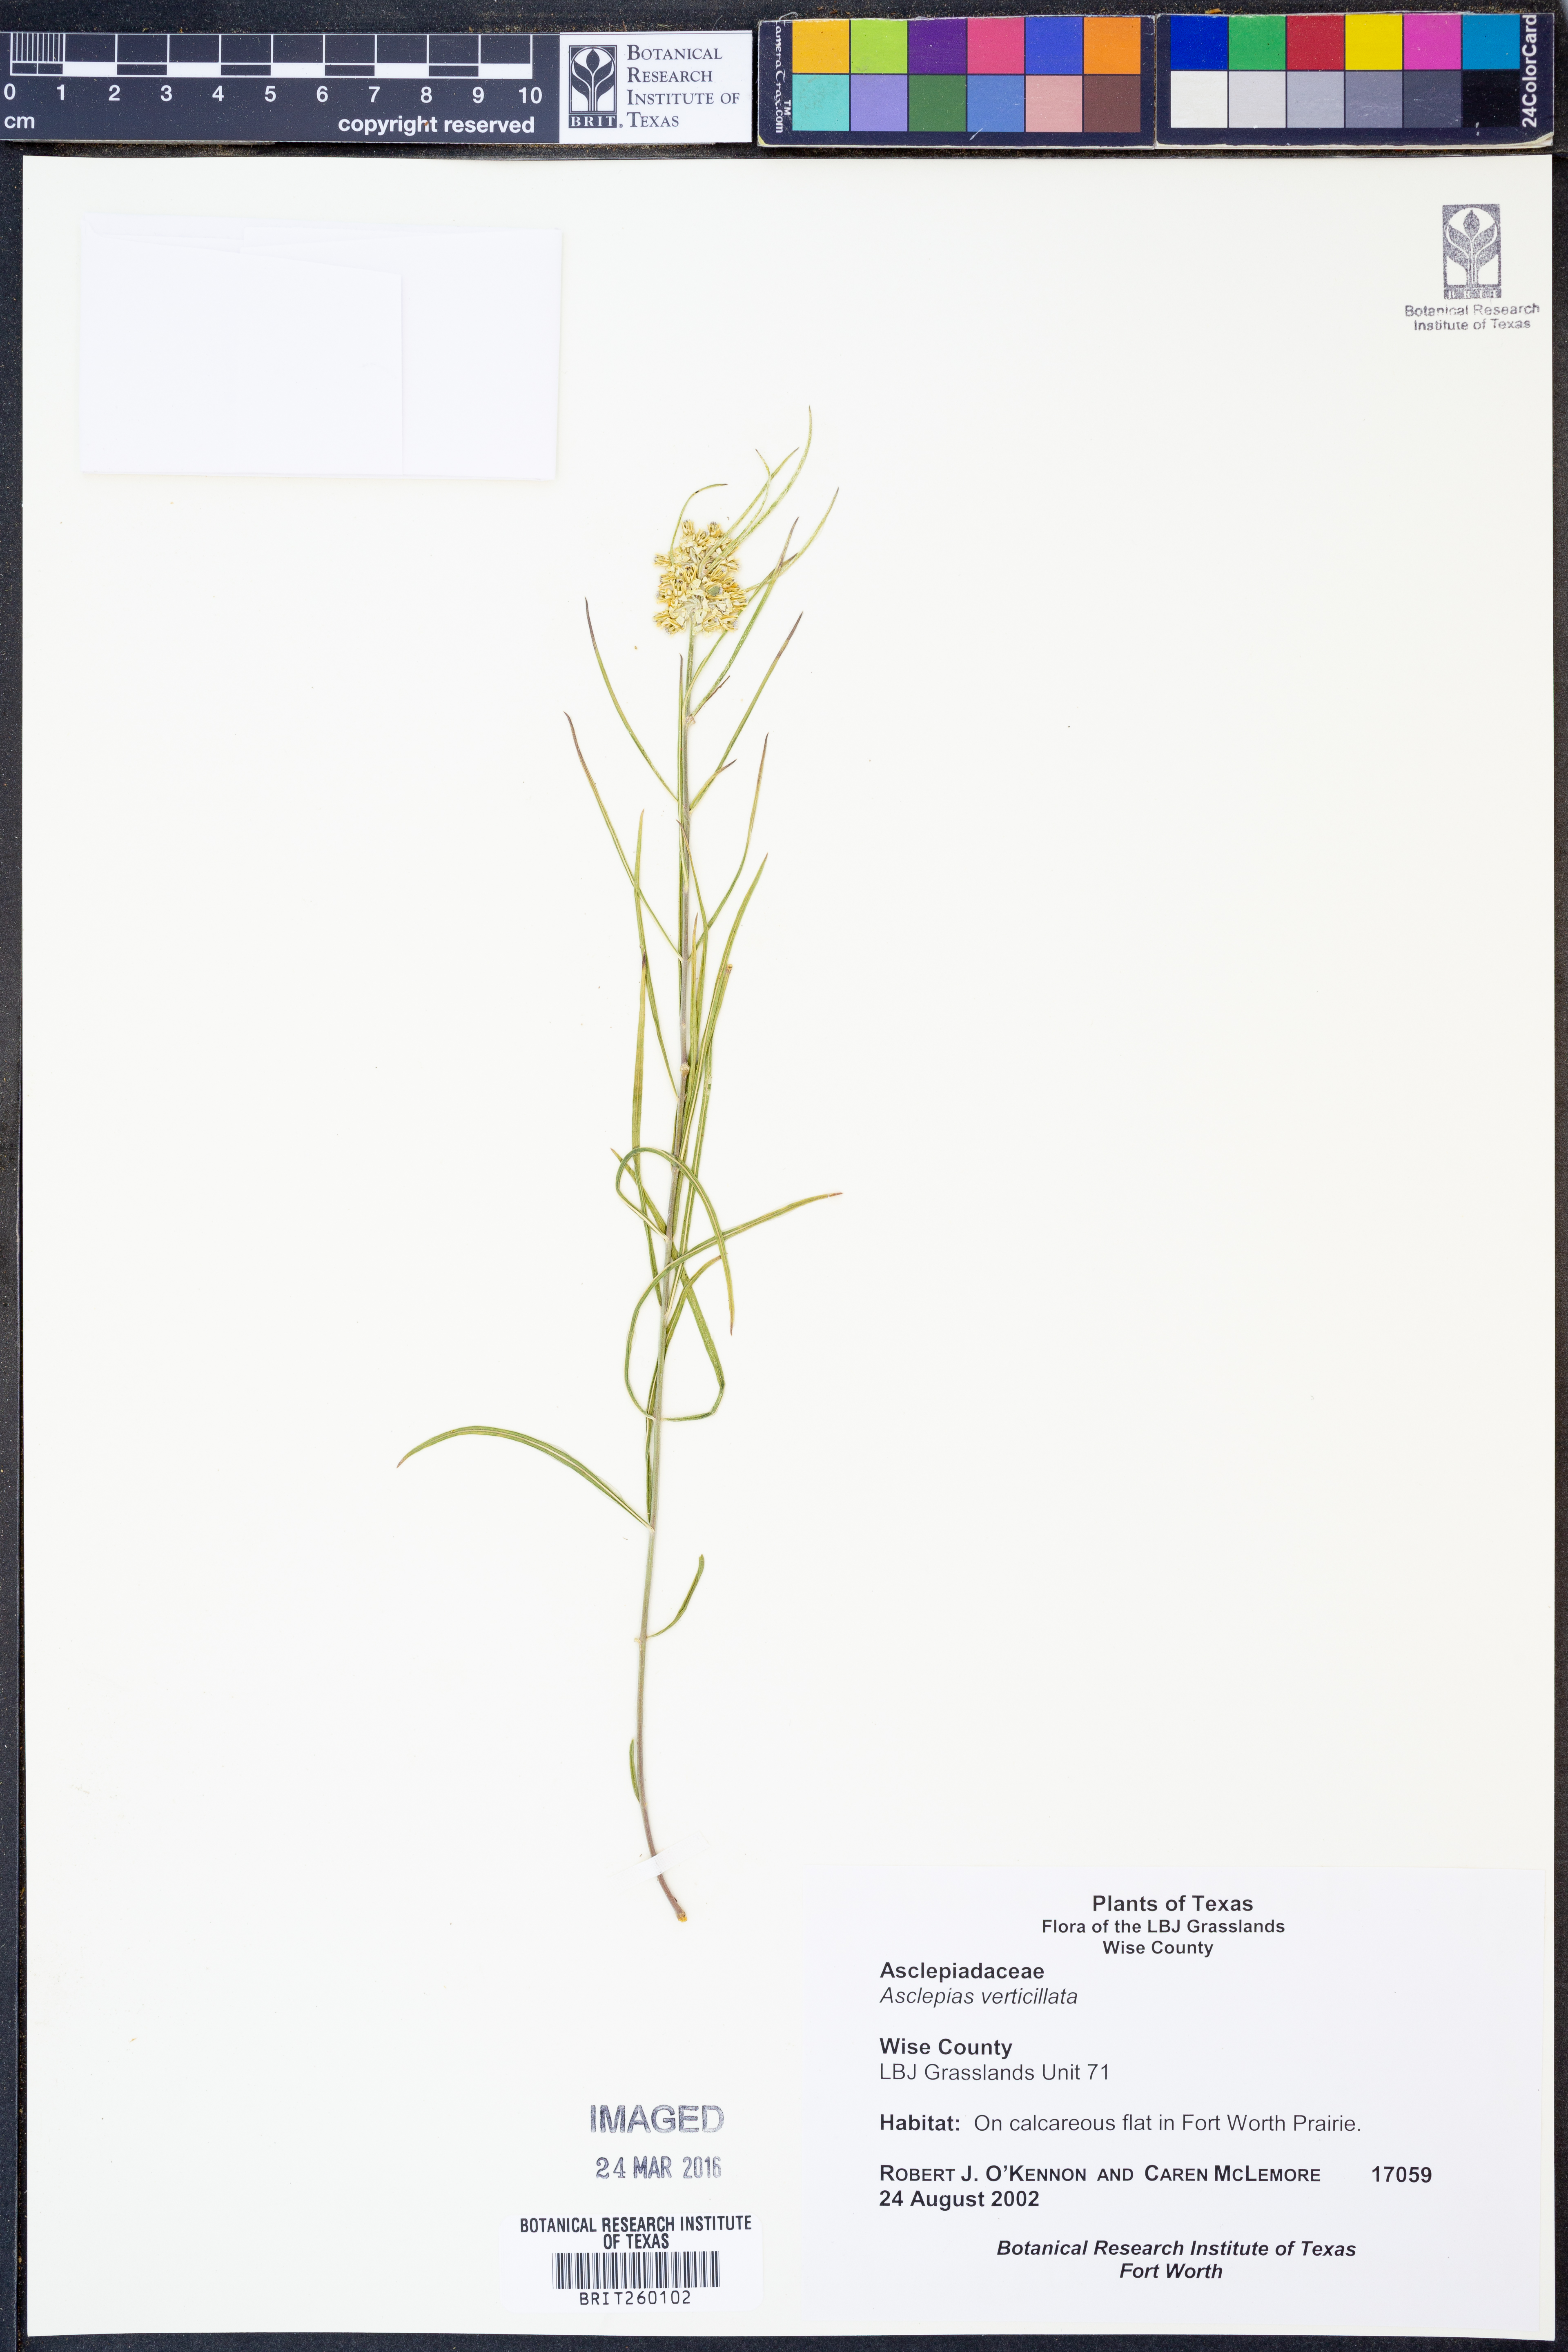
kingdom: Plantae
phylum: Tracheophyta
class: Magnoliopsida
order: Gentianales
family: Apocynaceae
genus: Asclepias
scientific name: Asclepias verticillata
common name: Eastern whorled milkweed
